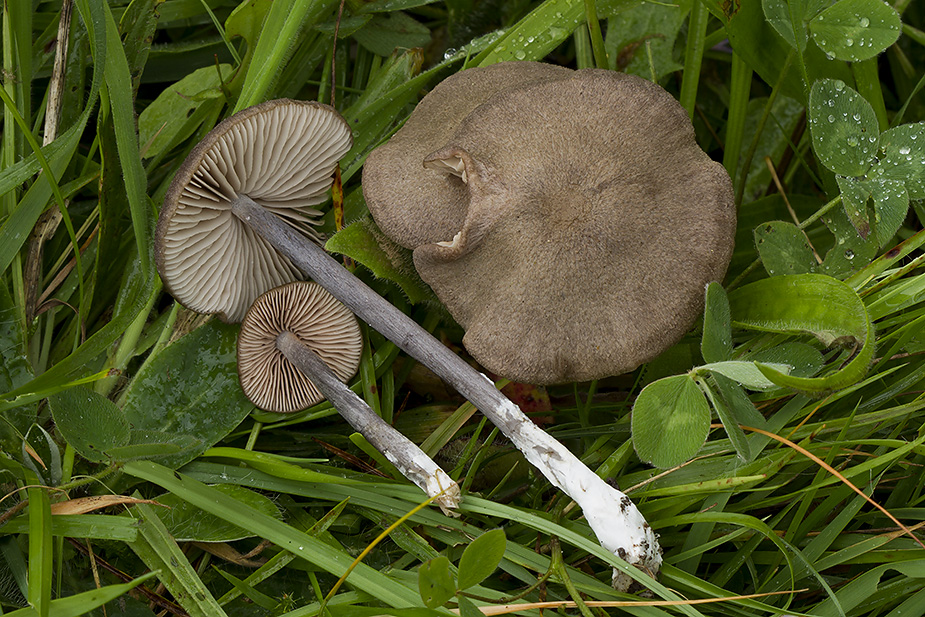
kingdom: Fungi
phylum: Basidiomycota
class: Agaricomycetes
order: Agaricales
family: Entolomataceae
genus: Entoloma
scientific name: Entoloma griseocyaneum
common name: gråblå rødblad
